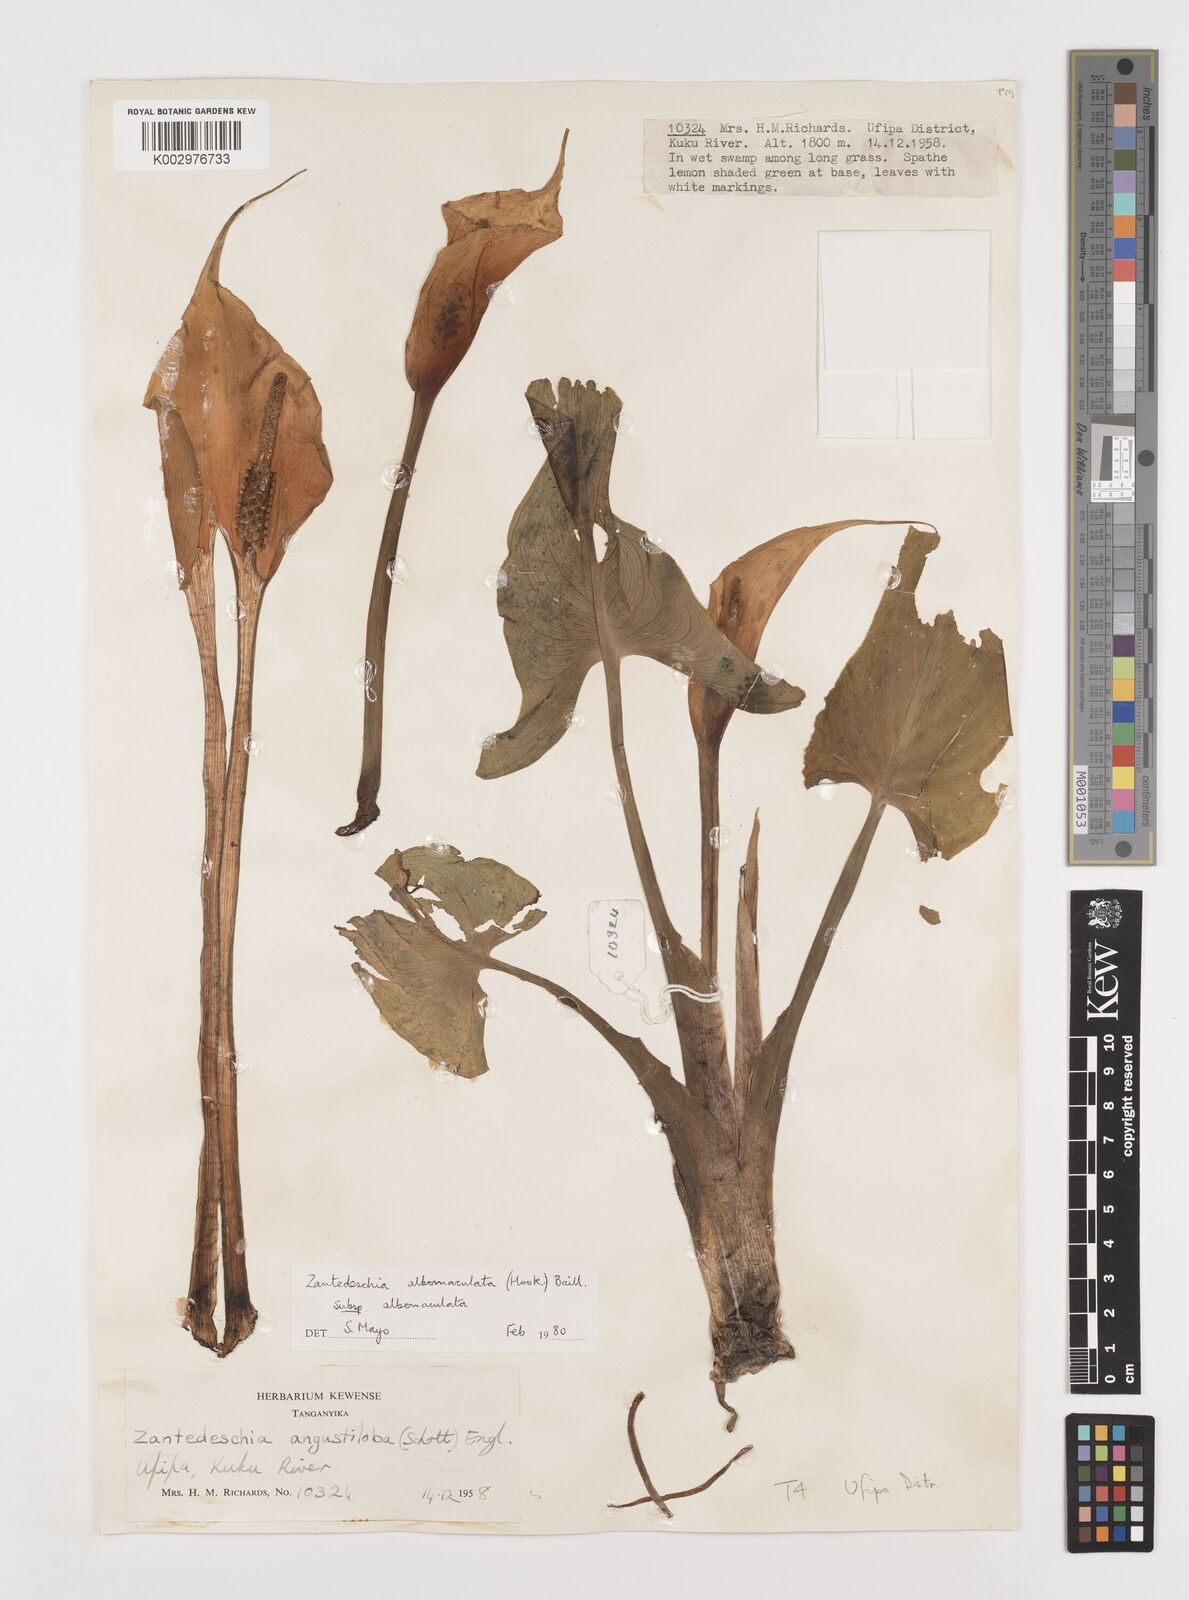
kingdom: Plantae
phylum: Tracheophyta
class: Liliopsida
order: Alismatales
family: Araceae
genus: Zantedeschia
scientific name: Zantedeschia albomaculata
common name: Spotted calla lily
